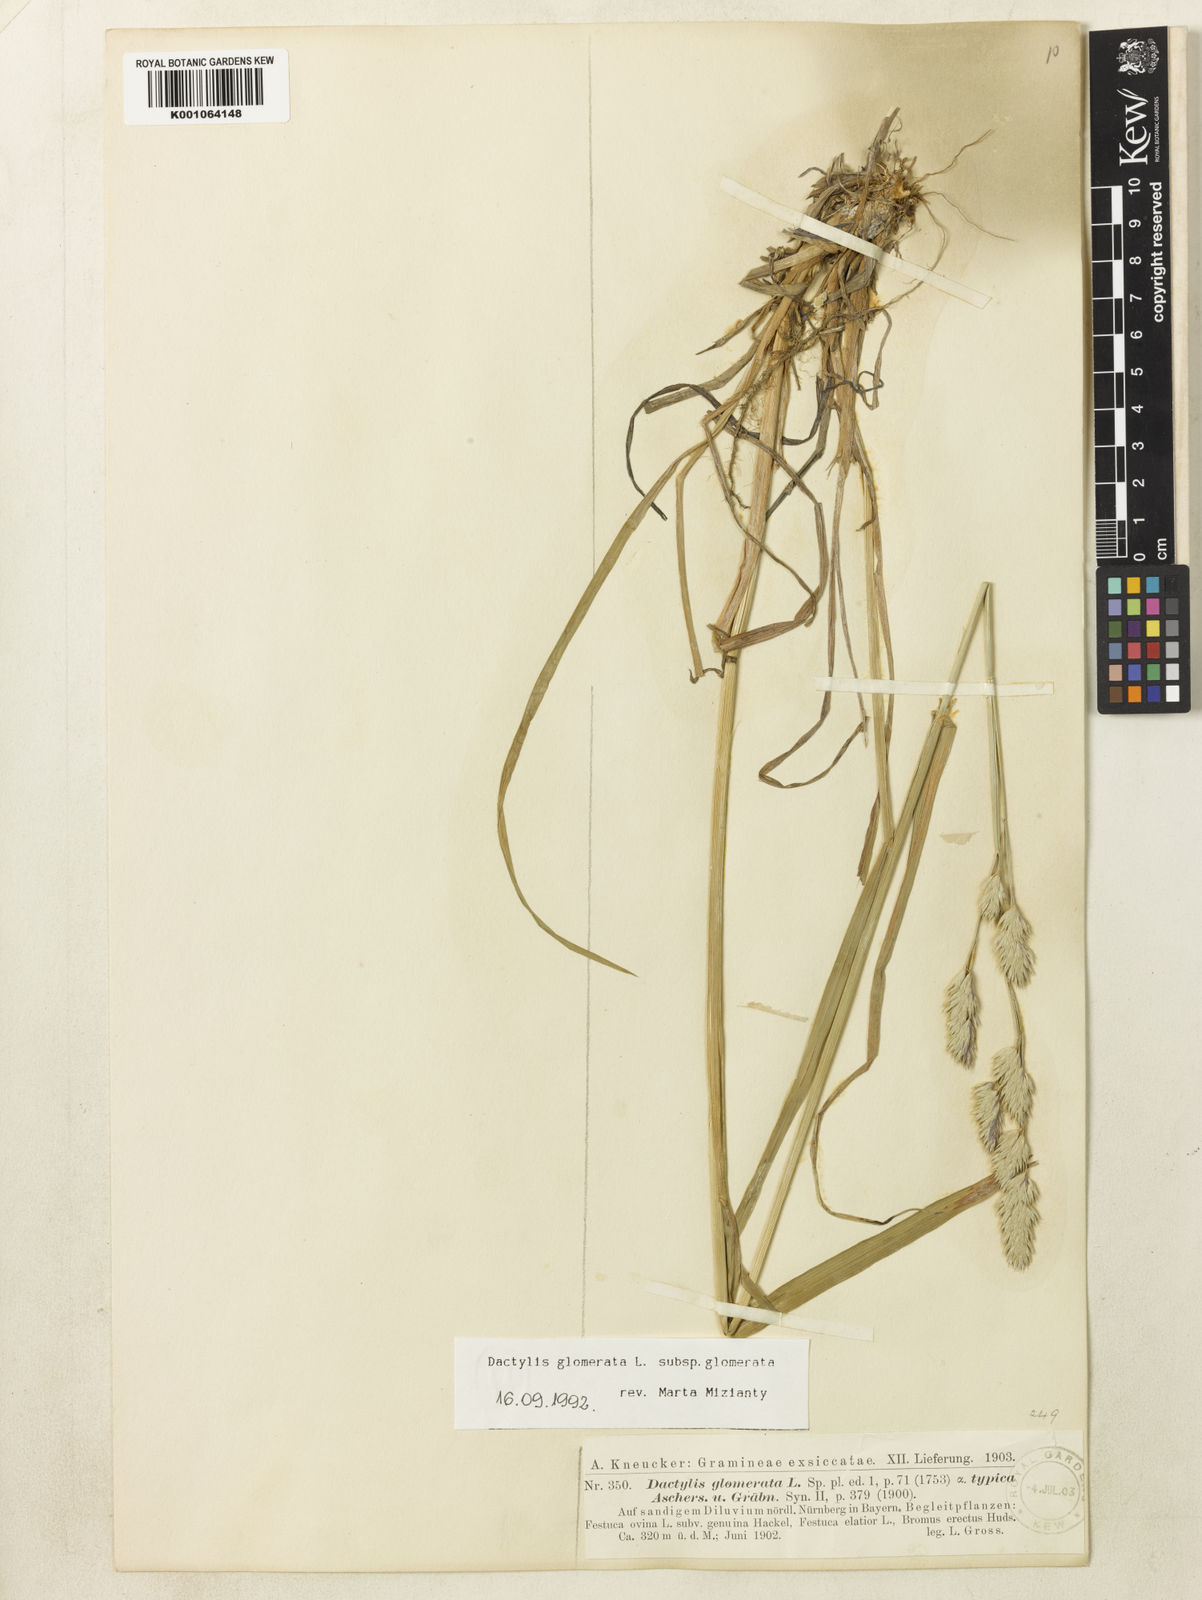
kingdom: Plantae
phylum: Tracheophyta
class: Liliopsida
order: Poales
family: Poaceae
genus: Dactylis
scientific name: Dactylis glomerata
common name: Orchardgrass
